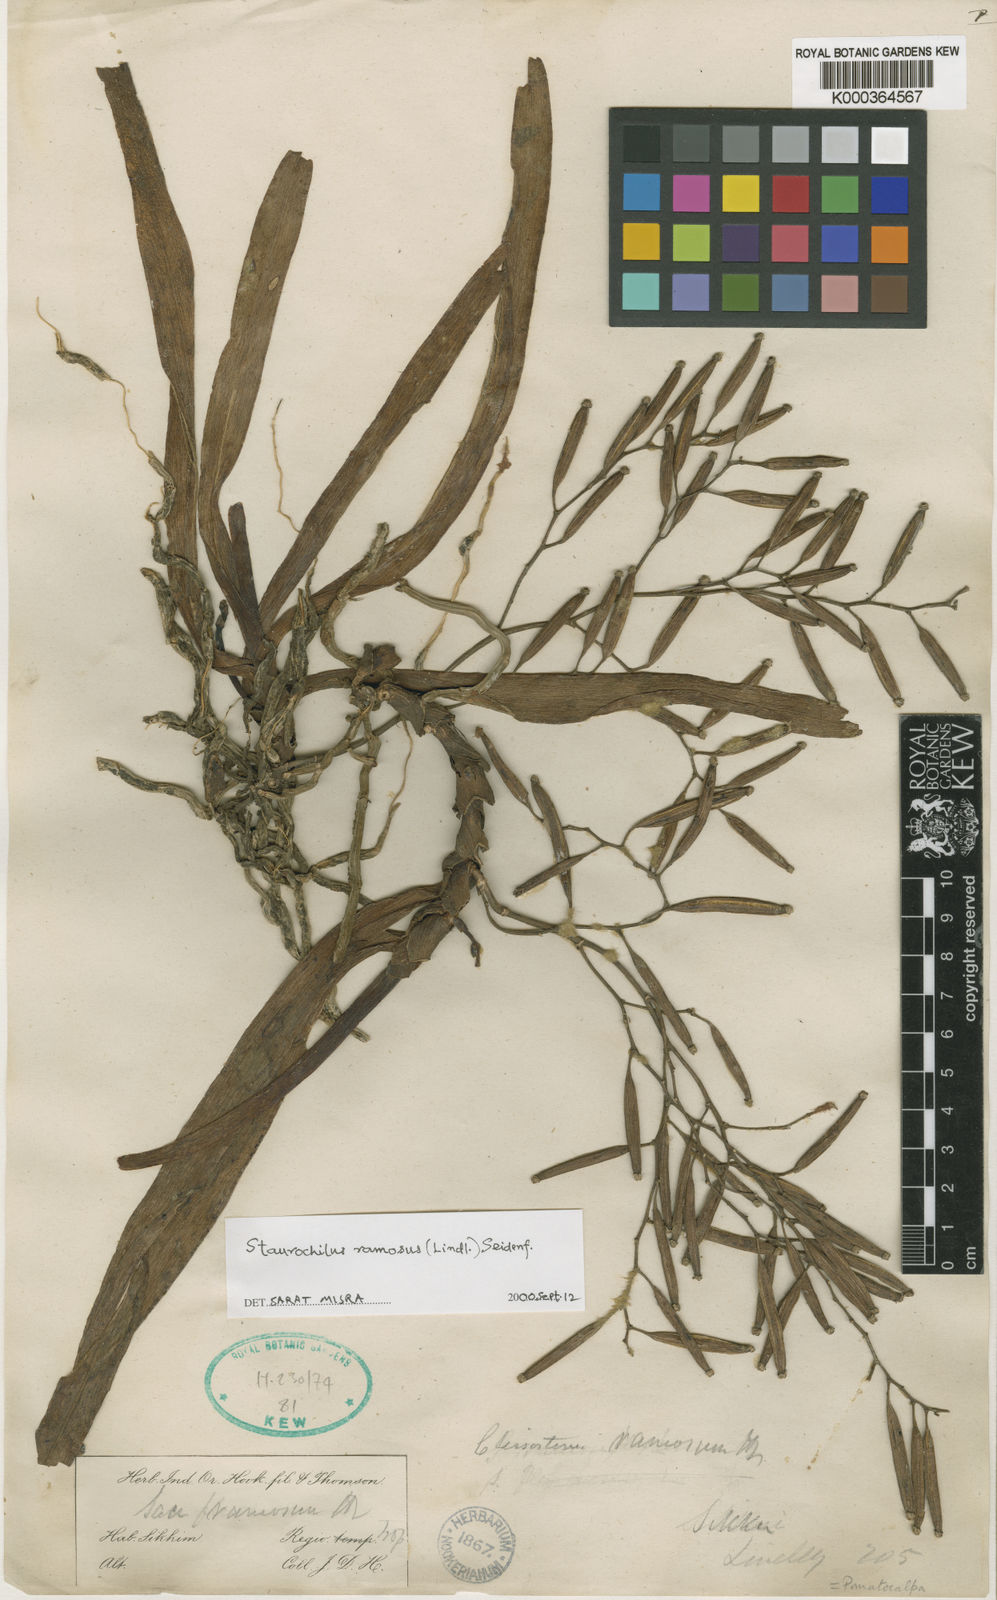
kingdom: Plantae
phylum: Tracheophyta
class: Liliopsida
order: Asparagales
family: Orchidaceae
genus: Trichoglottis
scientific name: Trichoglottis ramosa
